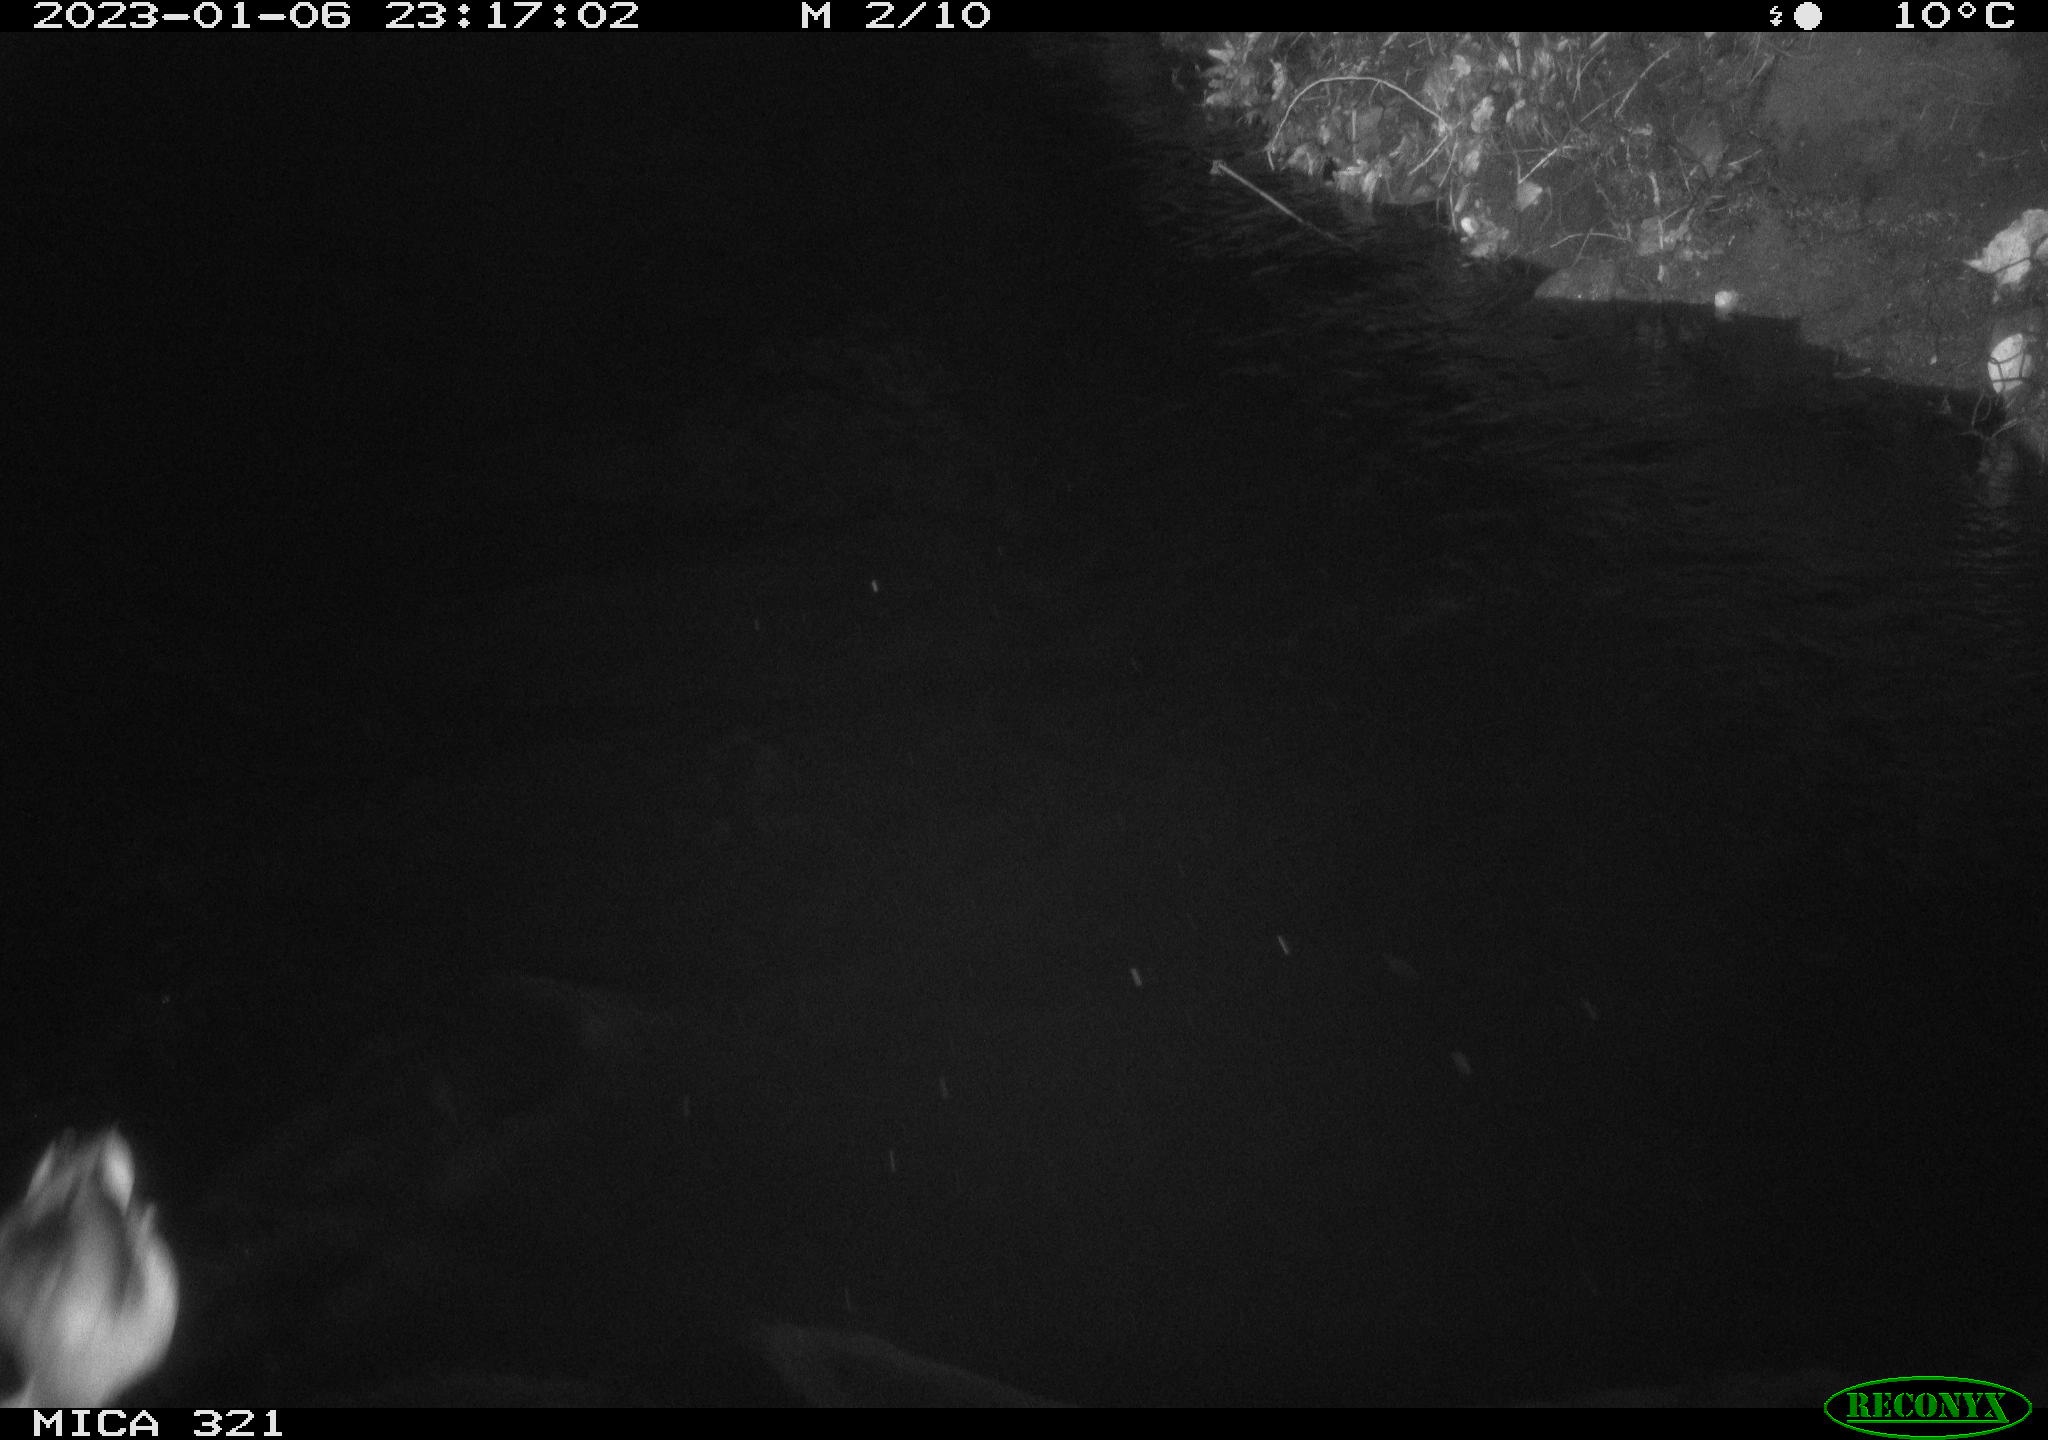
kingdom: Animalia
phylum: Chordata
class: Aves
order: Anseriformes
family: Anatidae
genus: Anas
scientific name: Anas
